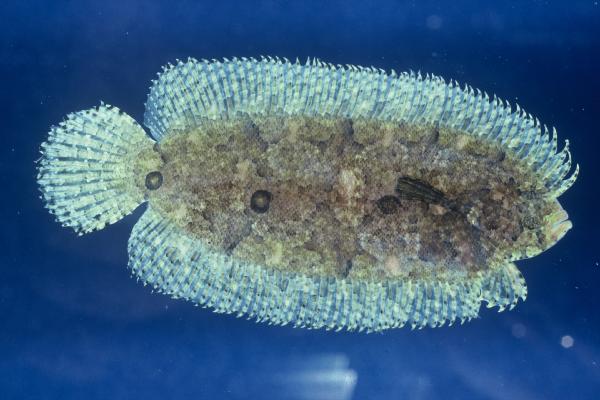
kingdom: Animalia
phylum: Chordata
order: Pleuronectiformes
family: Samaridae
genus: Samariscus
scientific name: Samariscus triocellatus
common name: Three-spot righteye flounder
